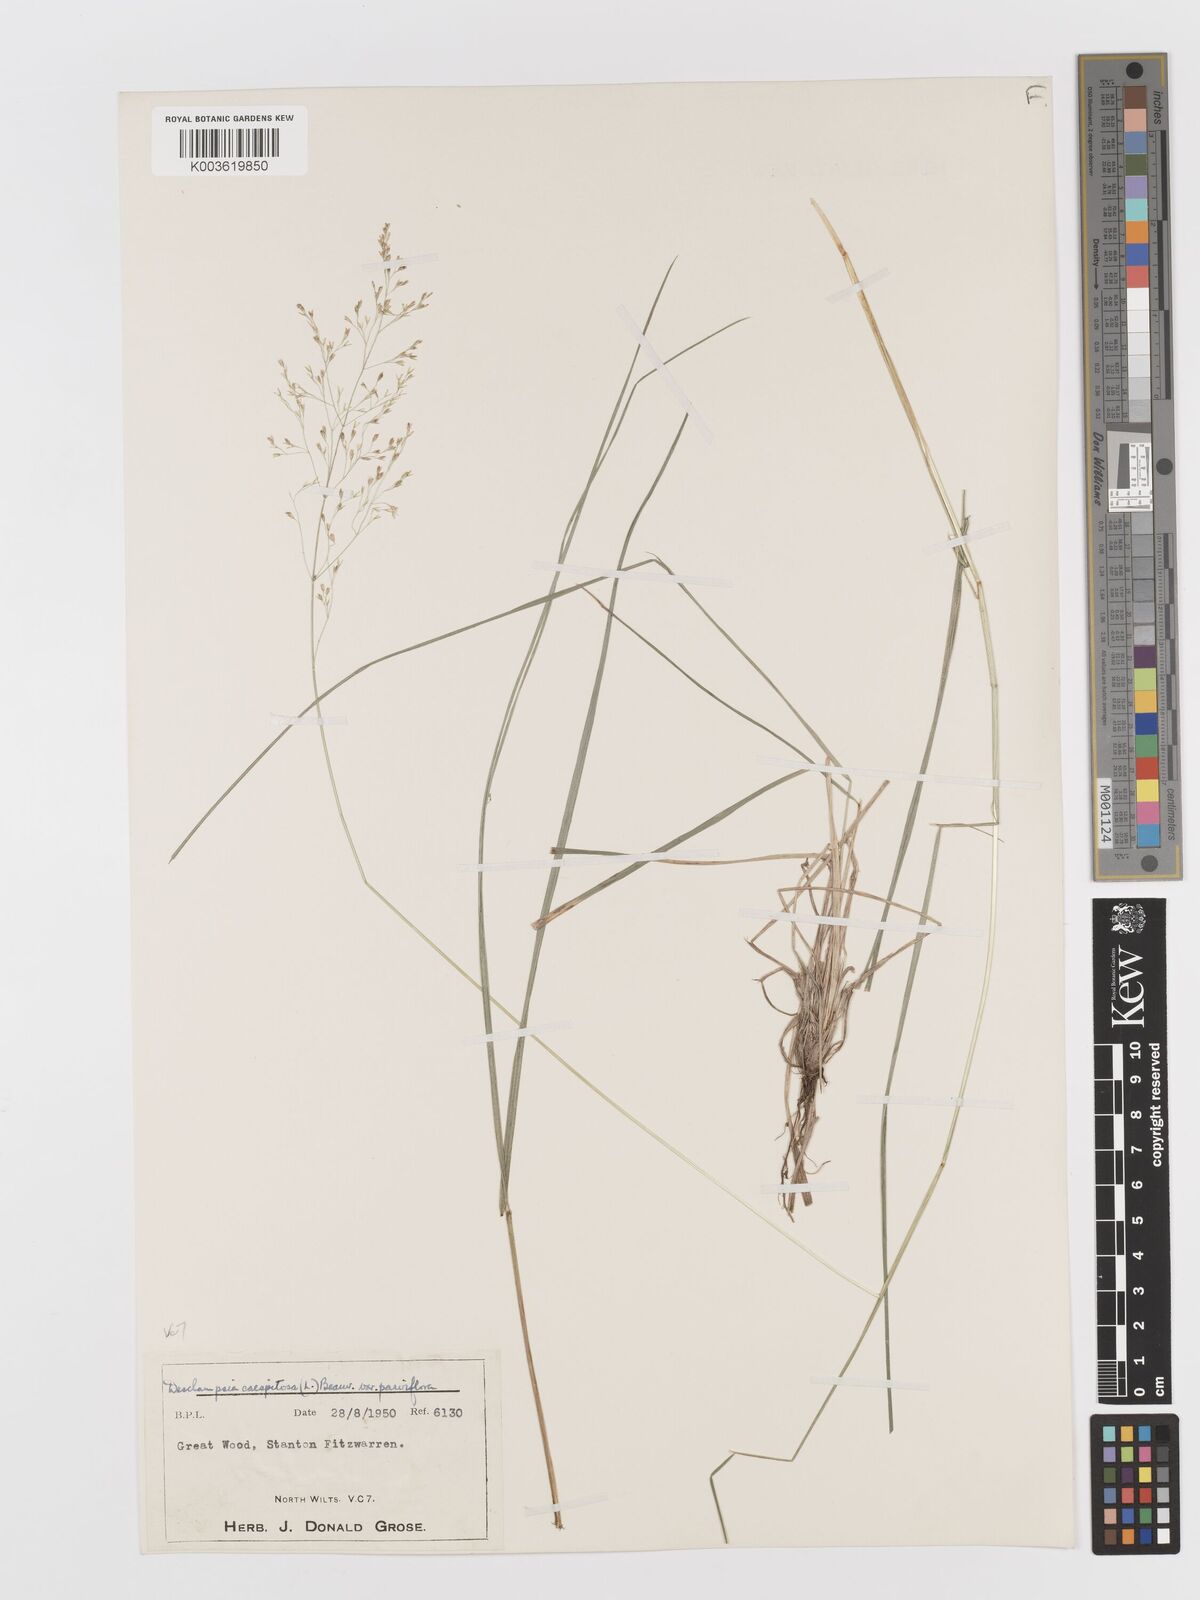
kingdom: Plantae
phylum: Tracheophyta
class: Liliopsida
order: Poales
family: Poaceae
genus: Deschampsia
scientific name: Deschampsia cespitosa
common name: Tufted hair-grass
